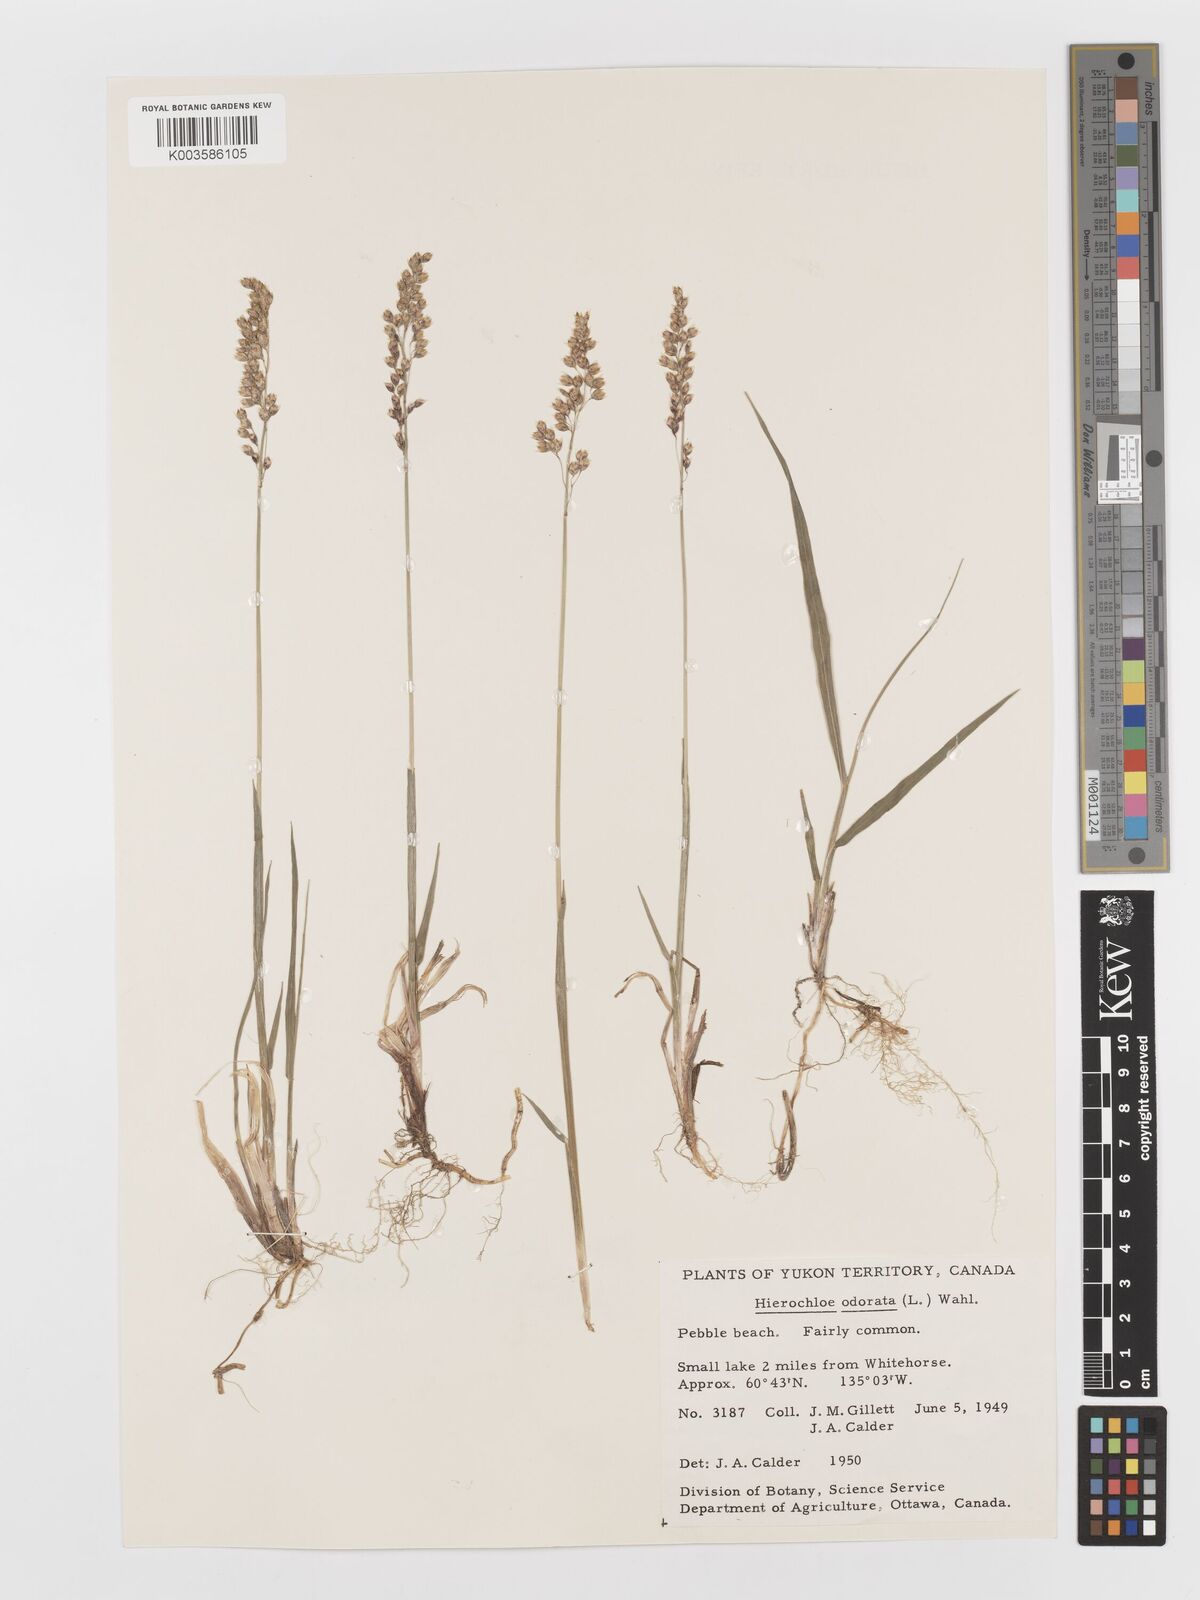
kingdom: Plantae
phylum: Tracheophyta
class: Liliopsida
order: Poales
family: Poaceae
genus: Anthoxanthum
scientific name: Anthoxanthum nitens
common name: Holy grass
